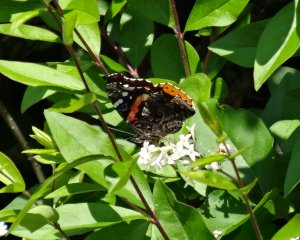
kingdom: Animalia
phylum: Arthropoda
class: Insecta
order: Lepidoptera
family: Nymphalidae
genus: Vanessa
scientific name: Vanessa atalanta
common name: Red Admiral
